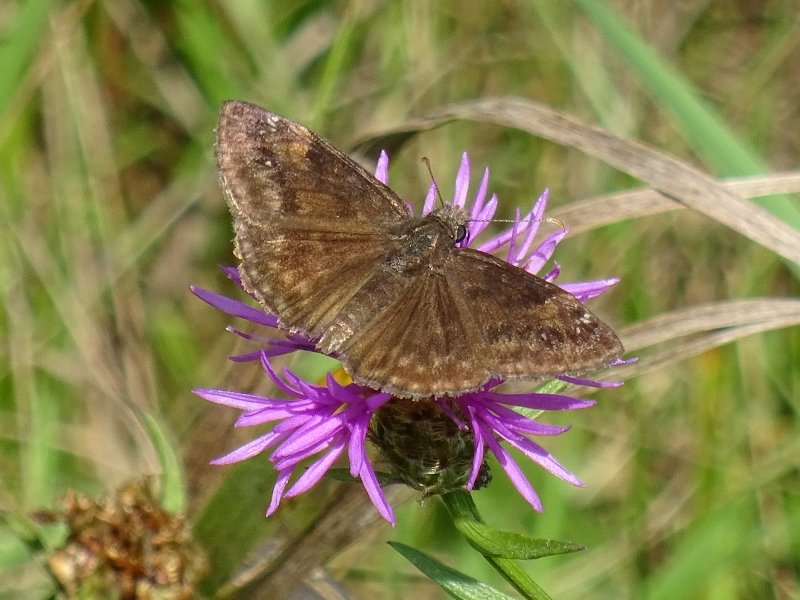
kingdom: Animalia
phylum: Arthropoda
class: Insecta
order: Lepidoptera
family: Hesperiidae
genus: Gesta
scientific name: Gesta
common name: Wild Indigo Duskywing
